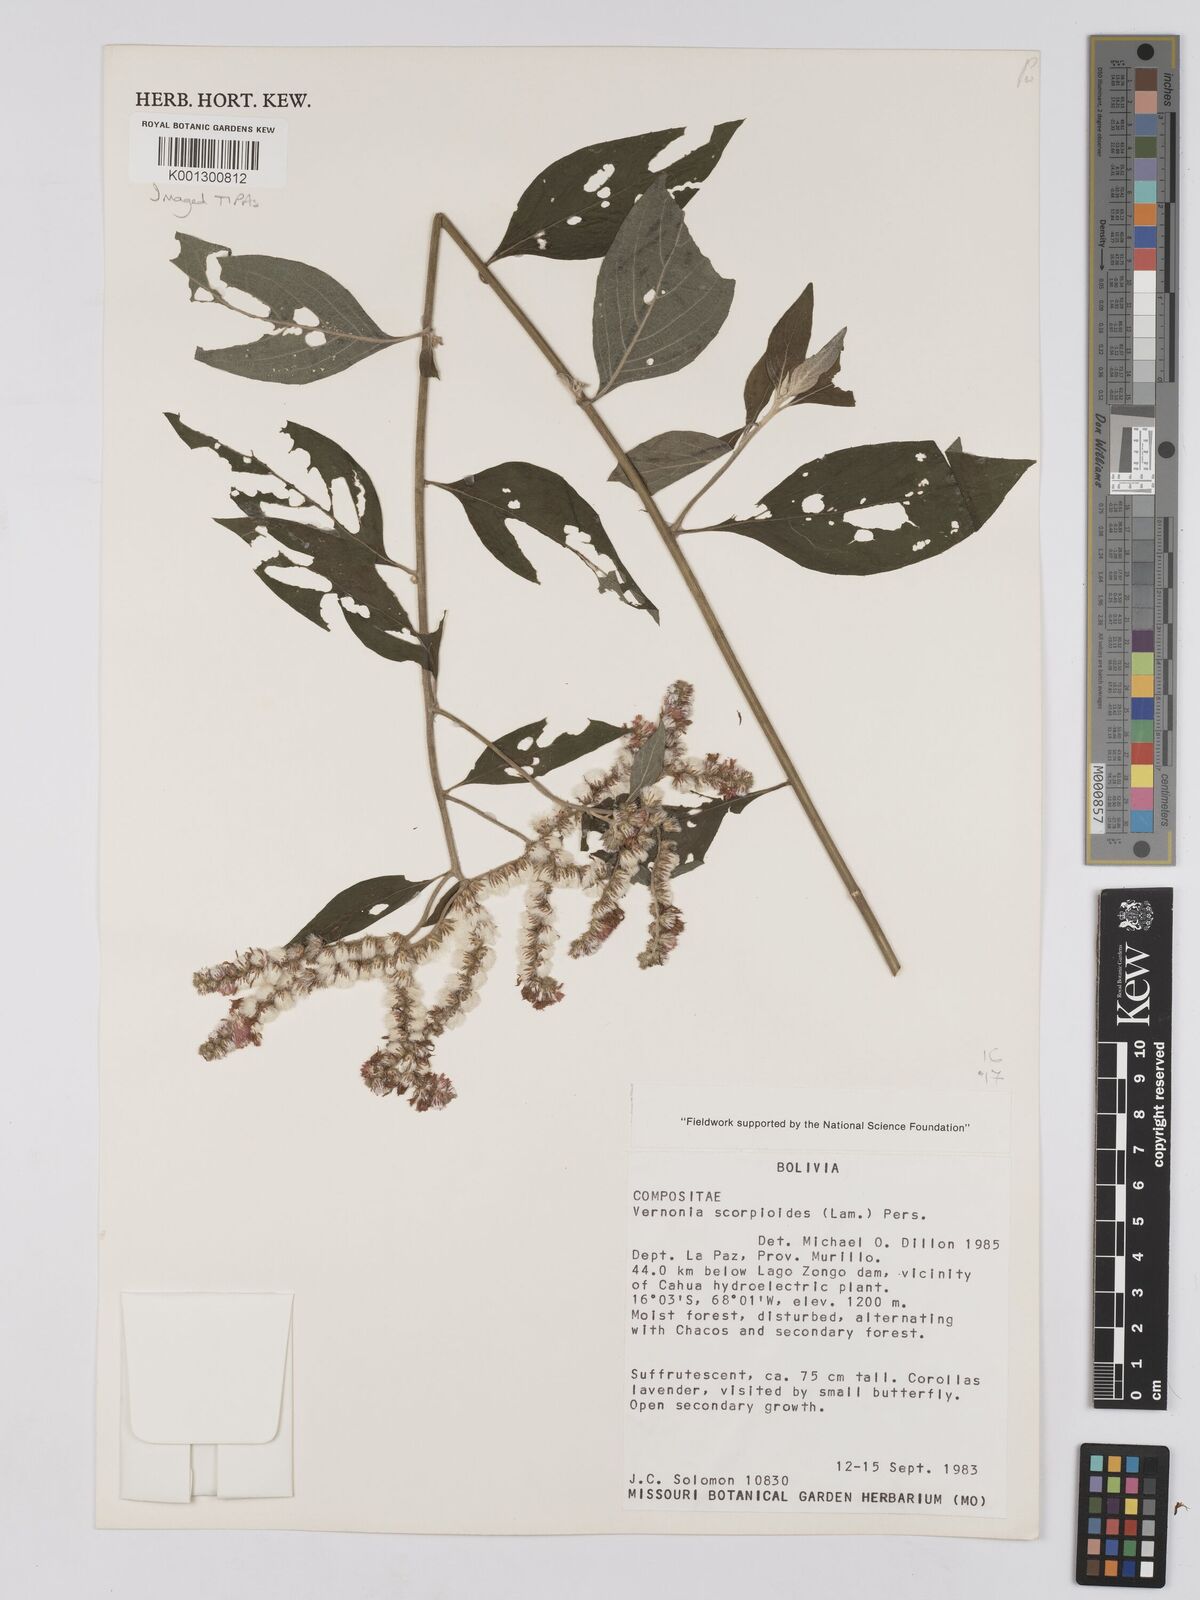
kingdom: Plantae
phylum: Tracheophyta
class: Magnoliopsida
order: Asterales
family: Asteraceae
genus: Cyrtocymura
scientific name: Cyrtocymura scorpioides
